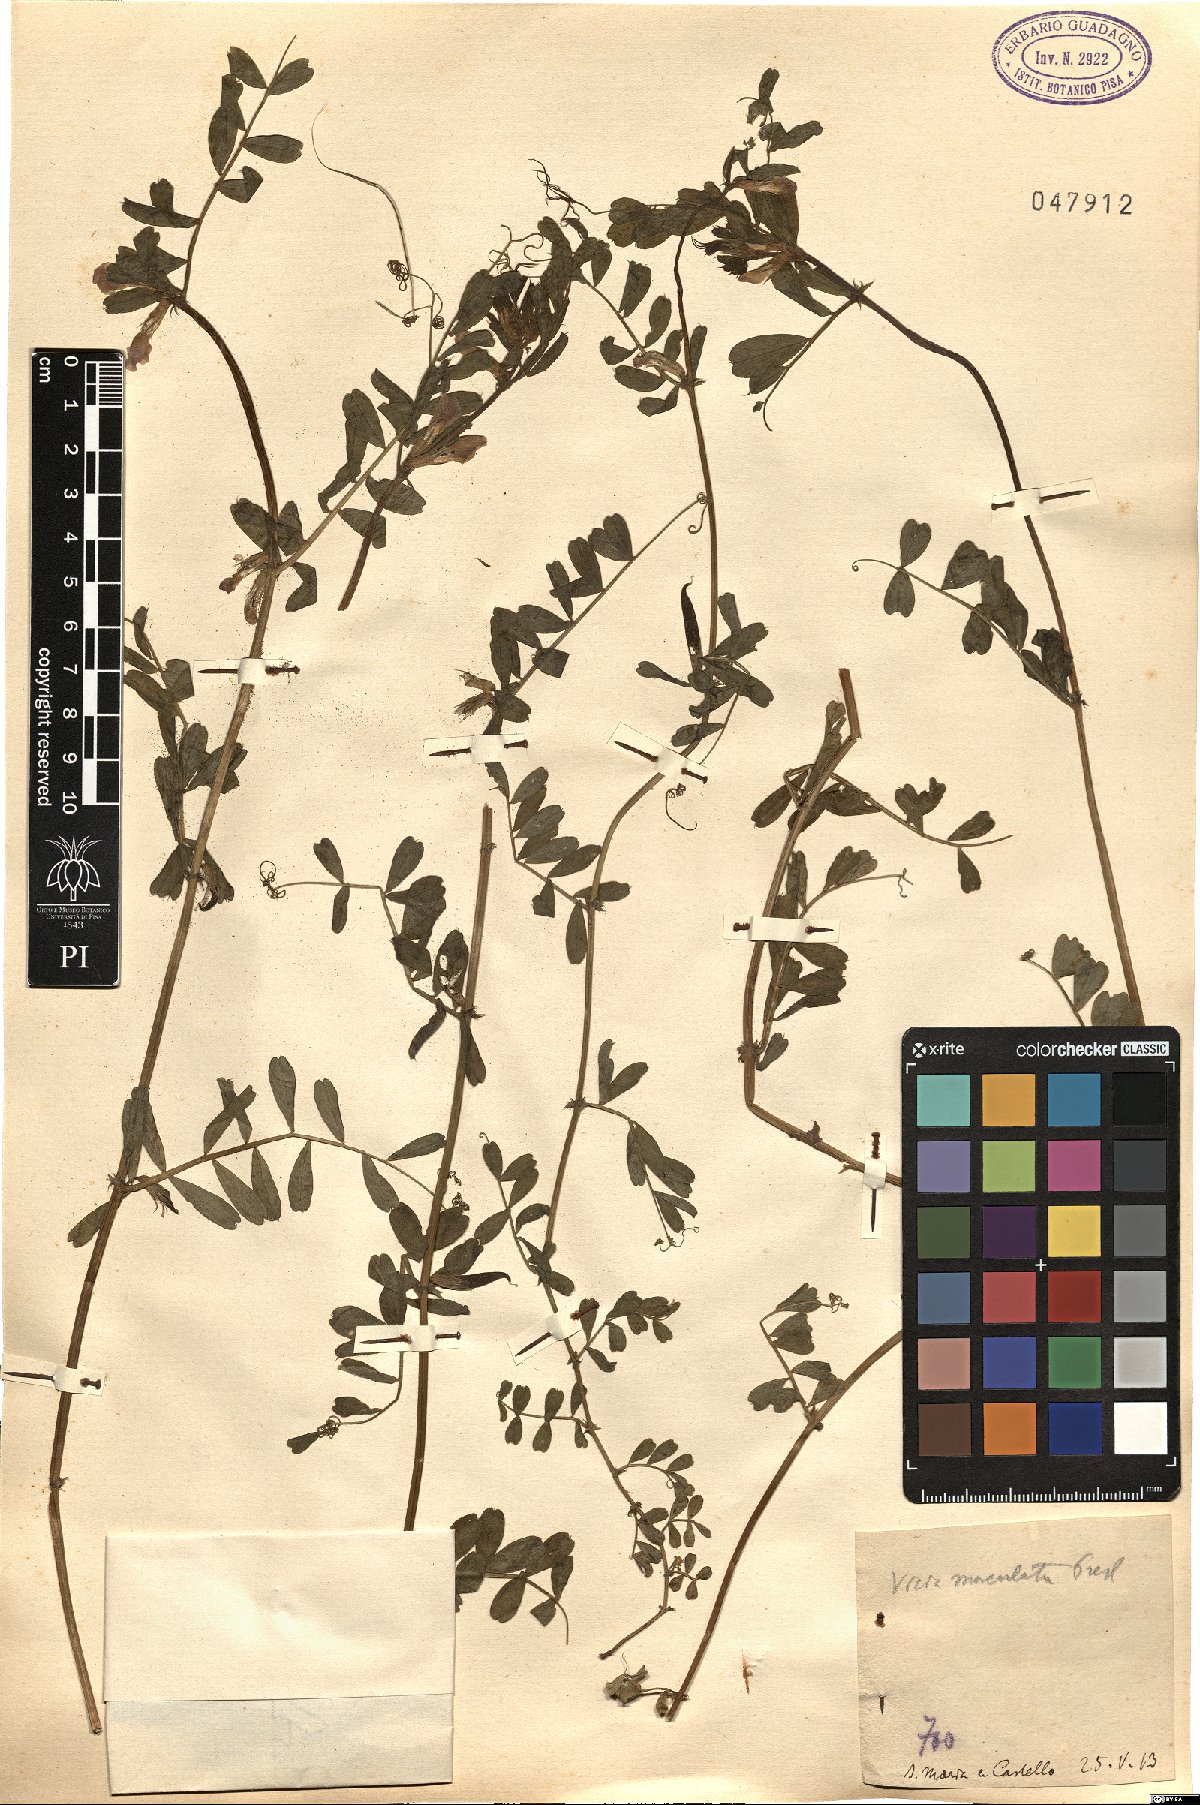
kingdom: Plantae
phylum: Tracheophyta
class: Magnoliopsida
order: Fabales
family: Fabaceae
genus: Vicia
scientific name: Vicia sativa
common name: Garden vetch
